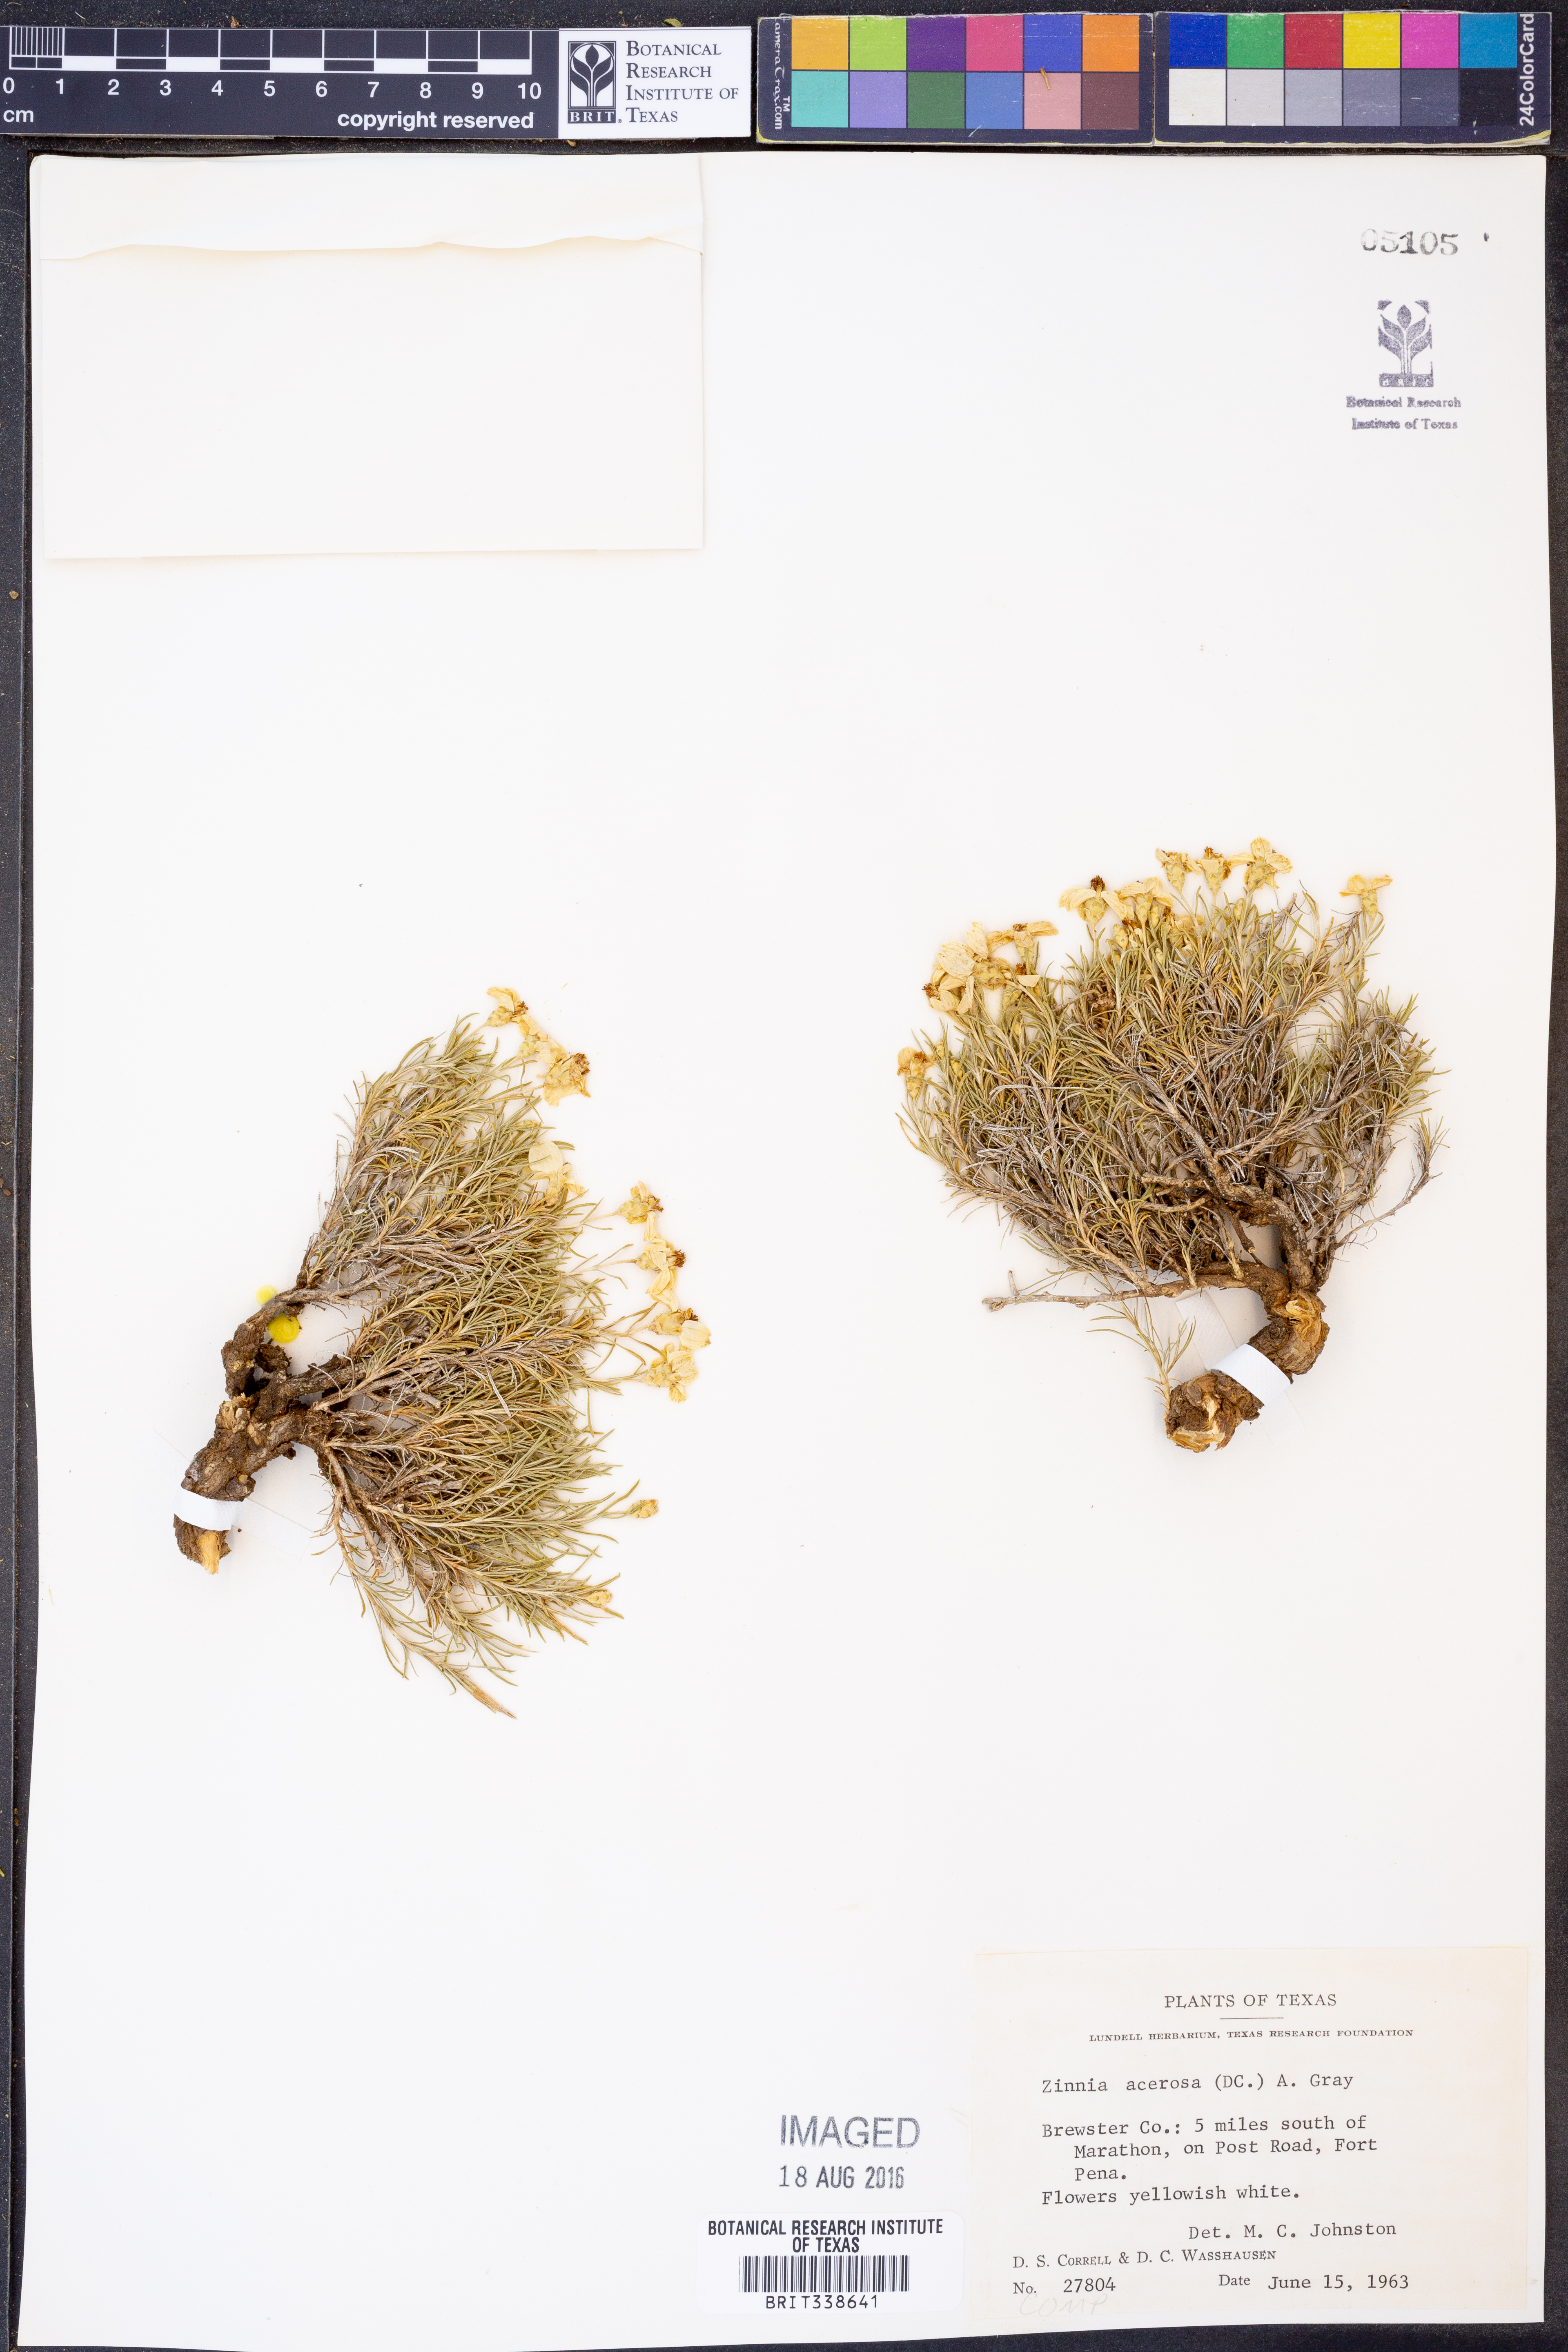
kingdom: Plantae
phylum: Tracheophyta
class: Magnoliopsida
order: Asterales
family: Asteraceae
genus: Zinnia
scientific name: Zinnia acerosa
